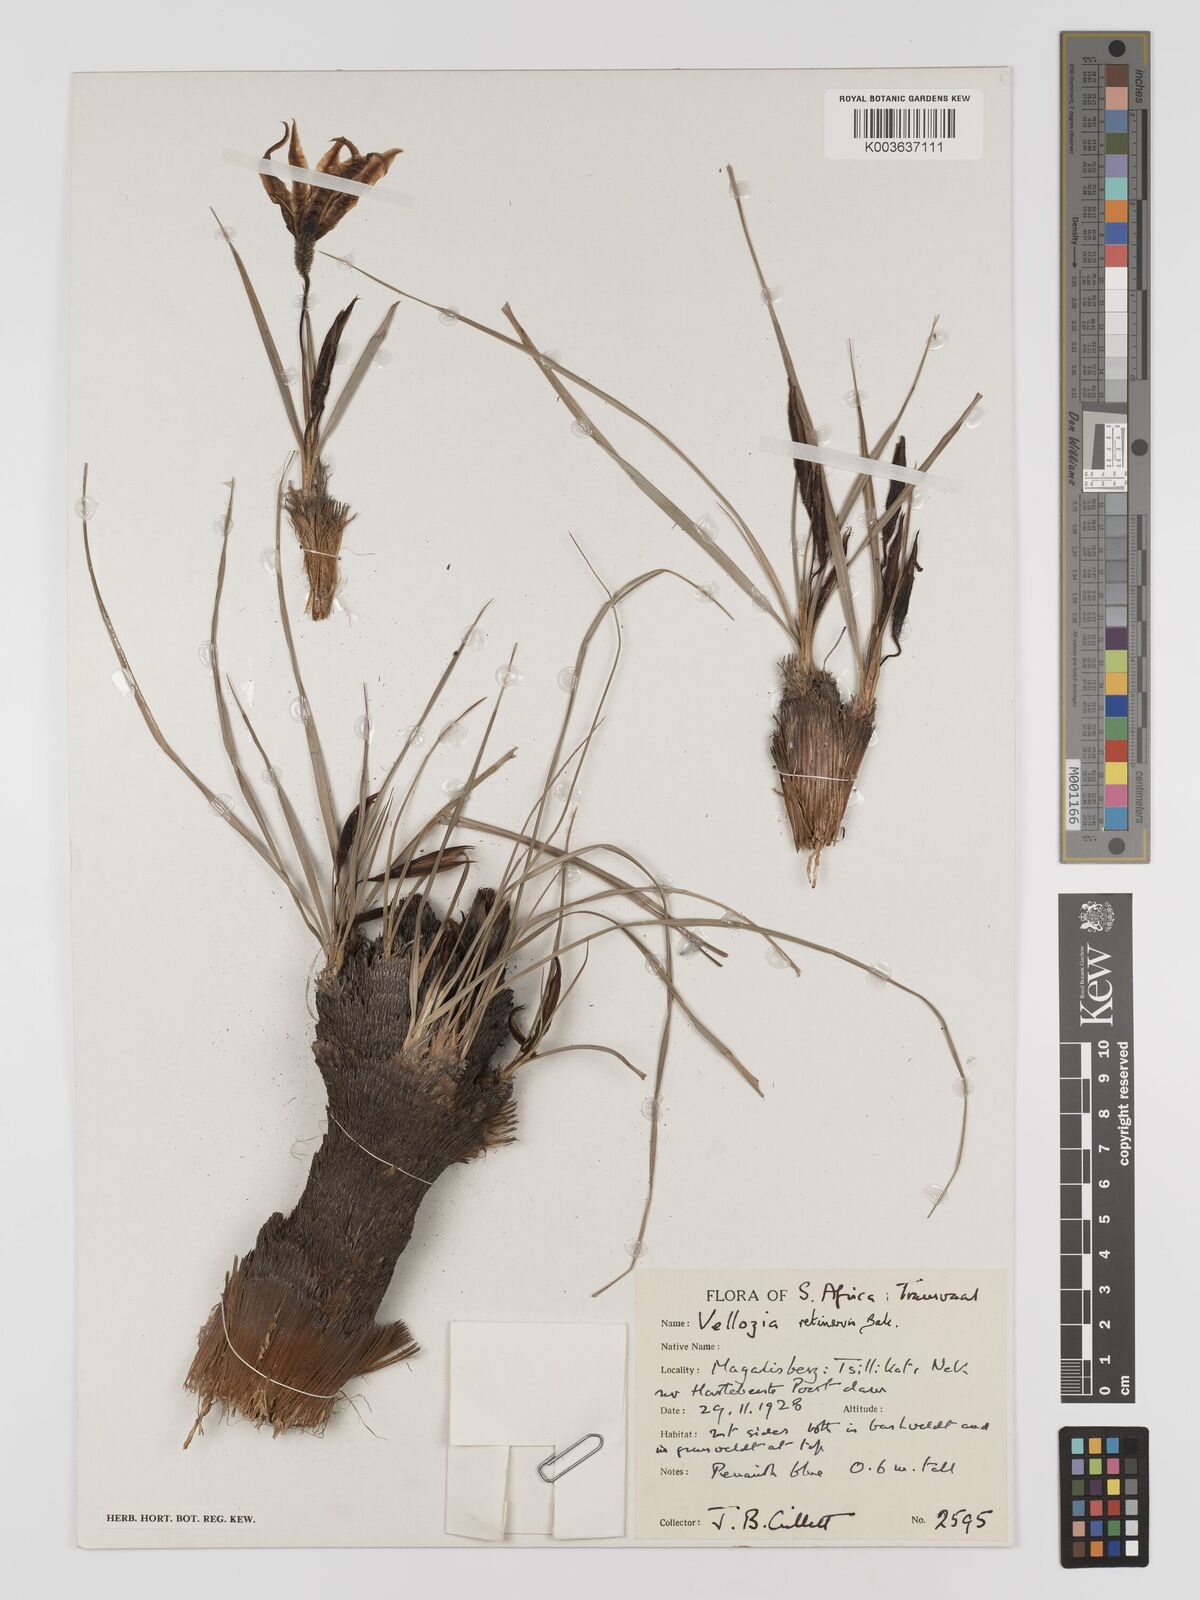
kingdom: Plantae
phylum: Tracheophyta
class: Liliopsida
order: Pandanales
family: Velloziaceae
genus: Xerophyta
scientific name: Xerophyta retinervis
